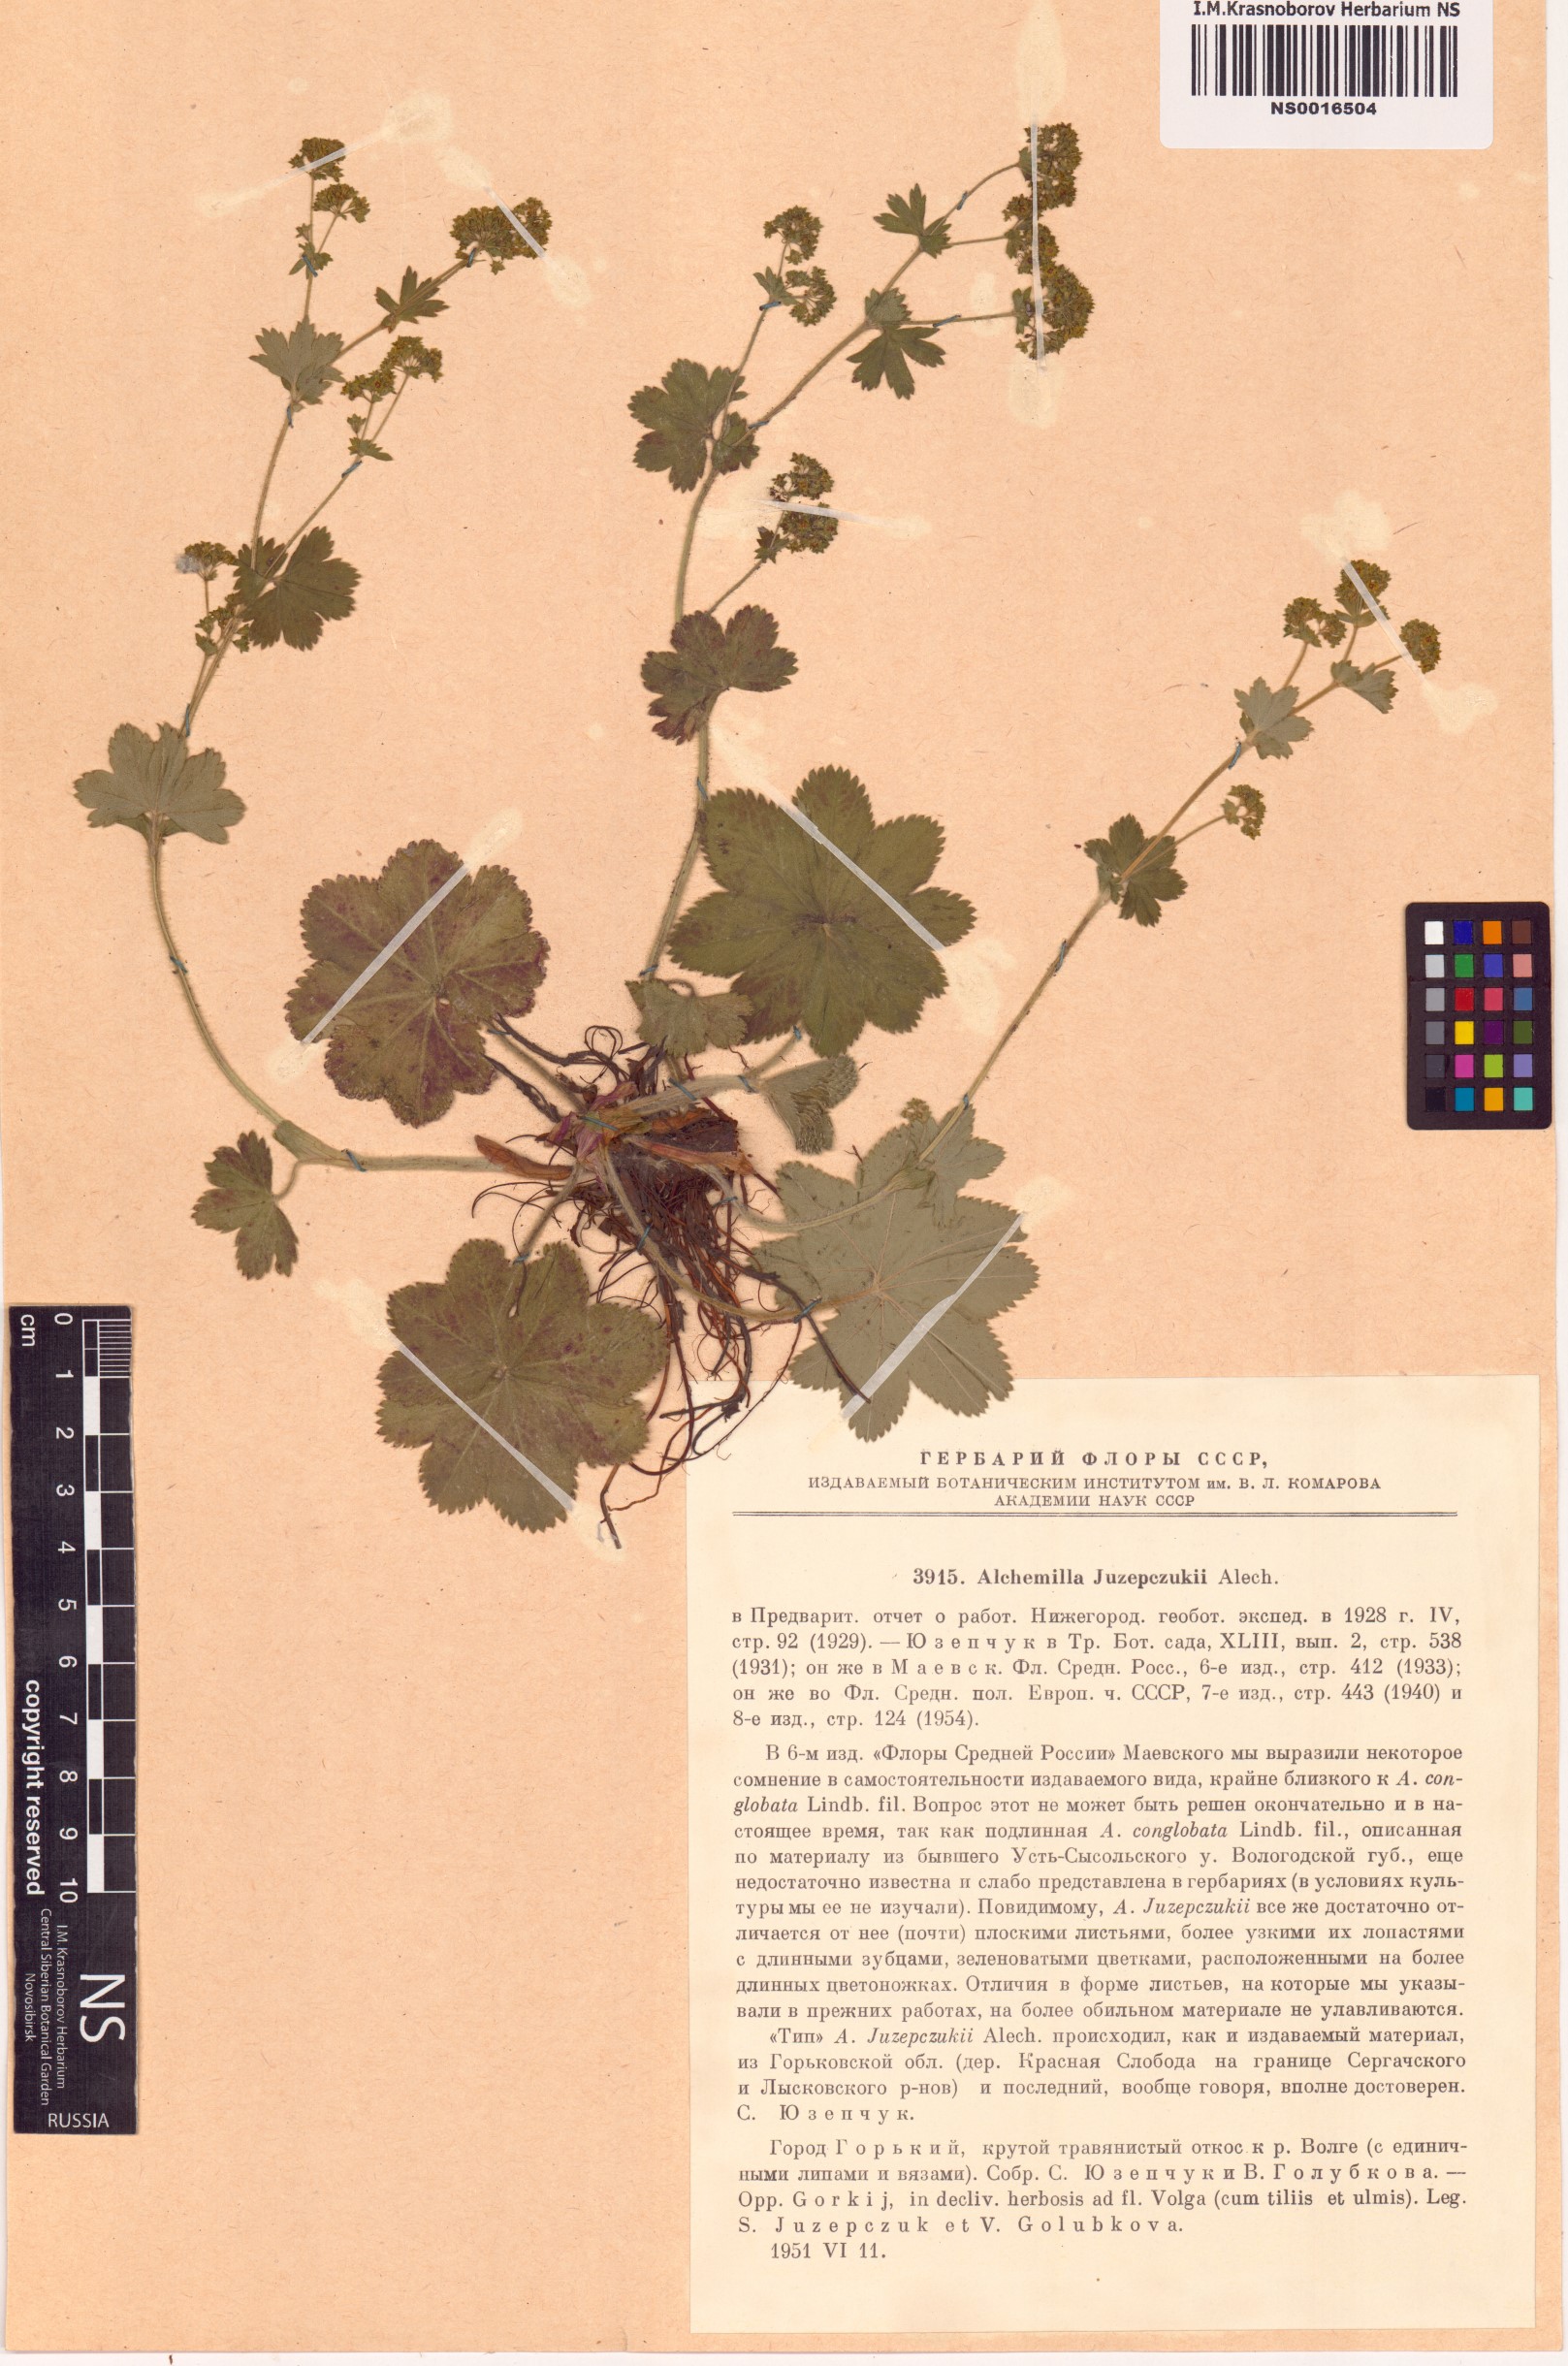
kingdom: Plantae
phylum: Tracheophyta
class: Magnoliopsida
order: Rosales
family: Rosaceae
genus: Alchemilla
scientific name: Alchemilla conglobata
